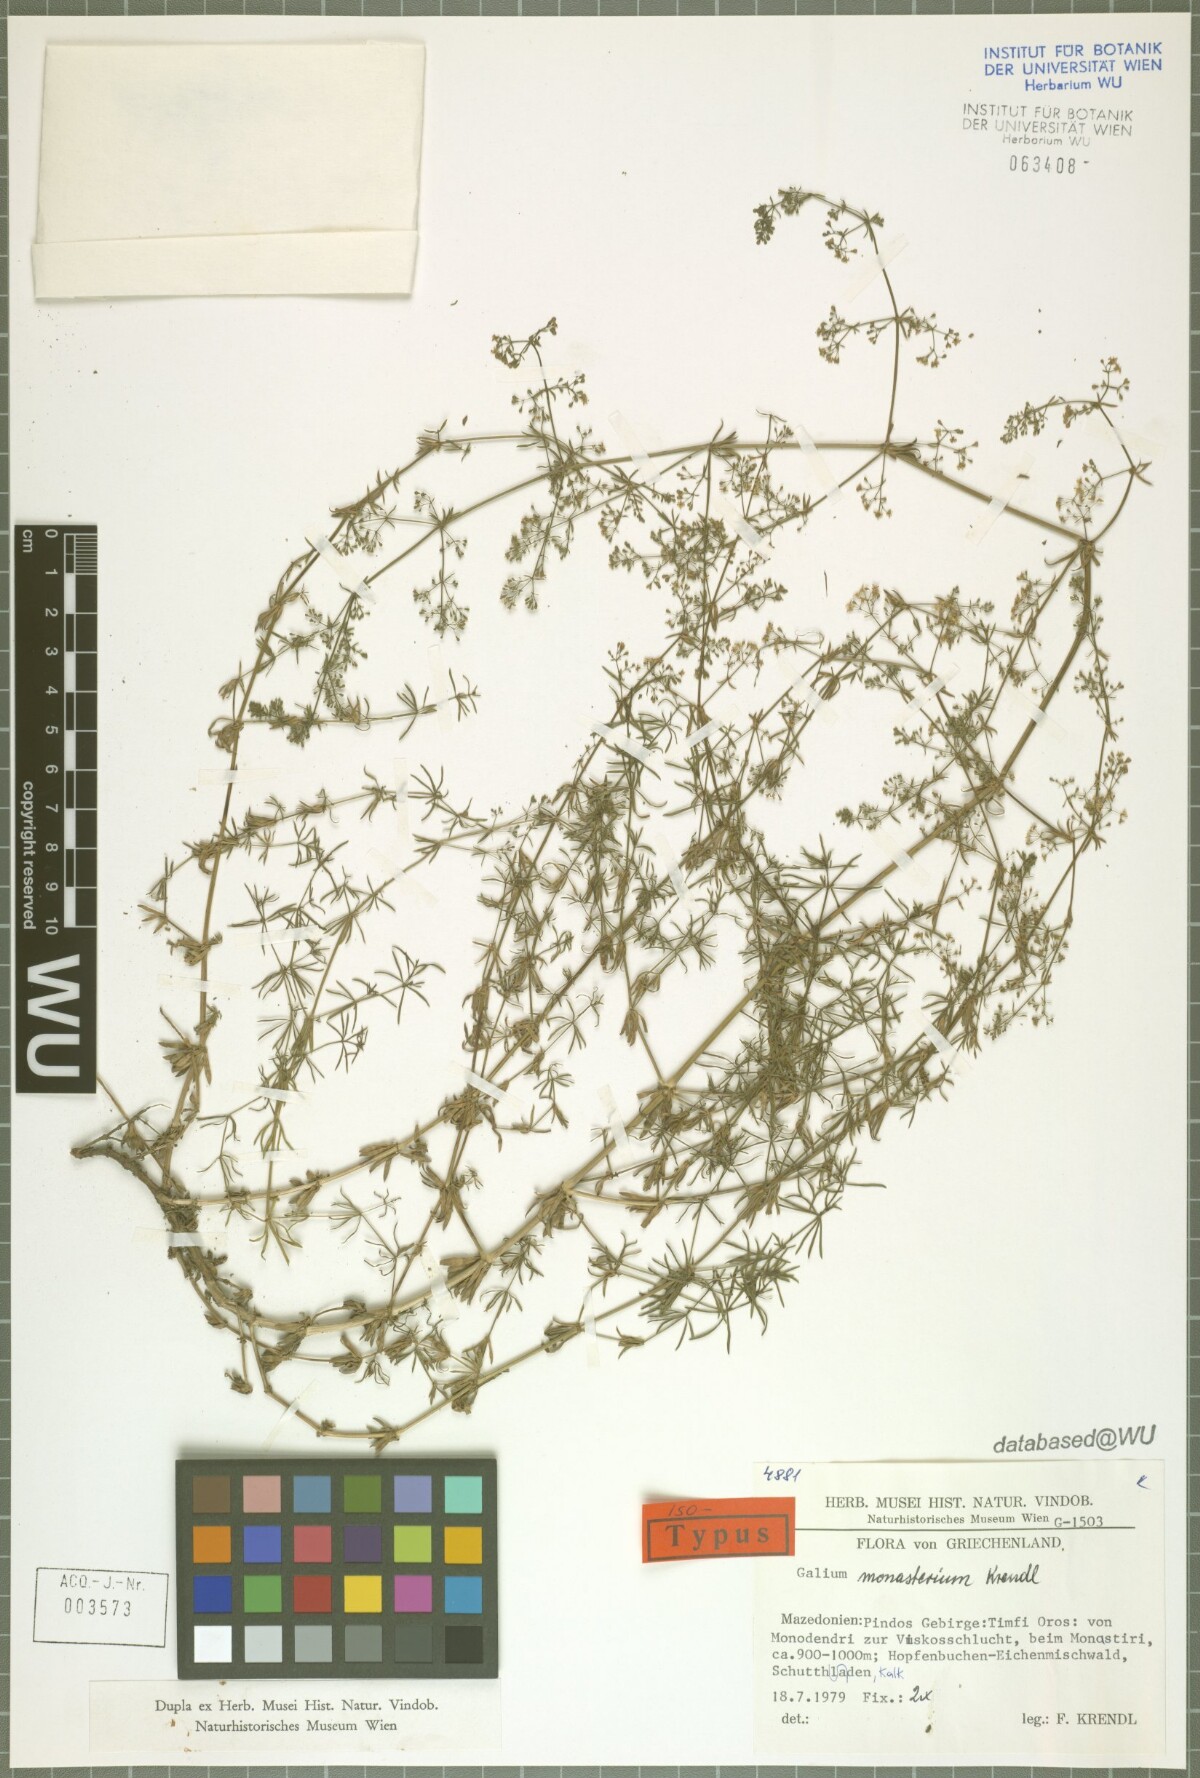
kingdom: Plantae
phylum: Tracheophyta
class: Magnoliopsida
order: Gentianales
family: Rubiaceae
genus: Galium
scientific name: Galium monasterium
